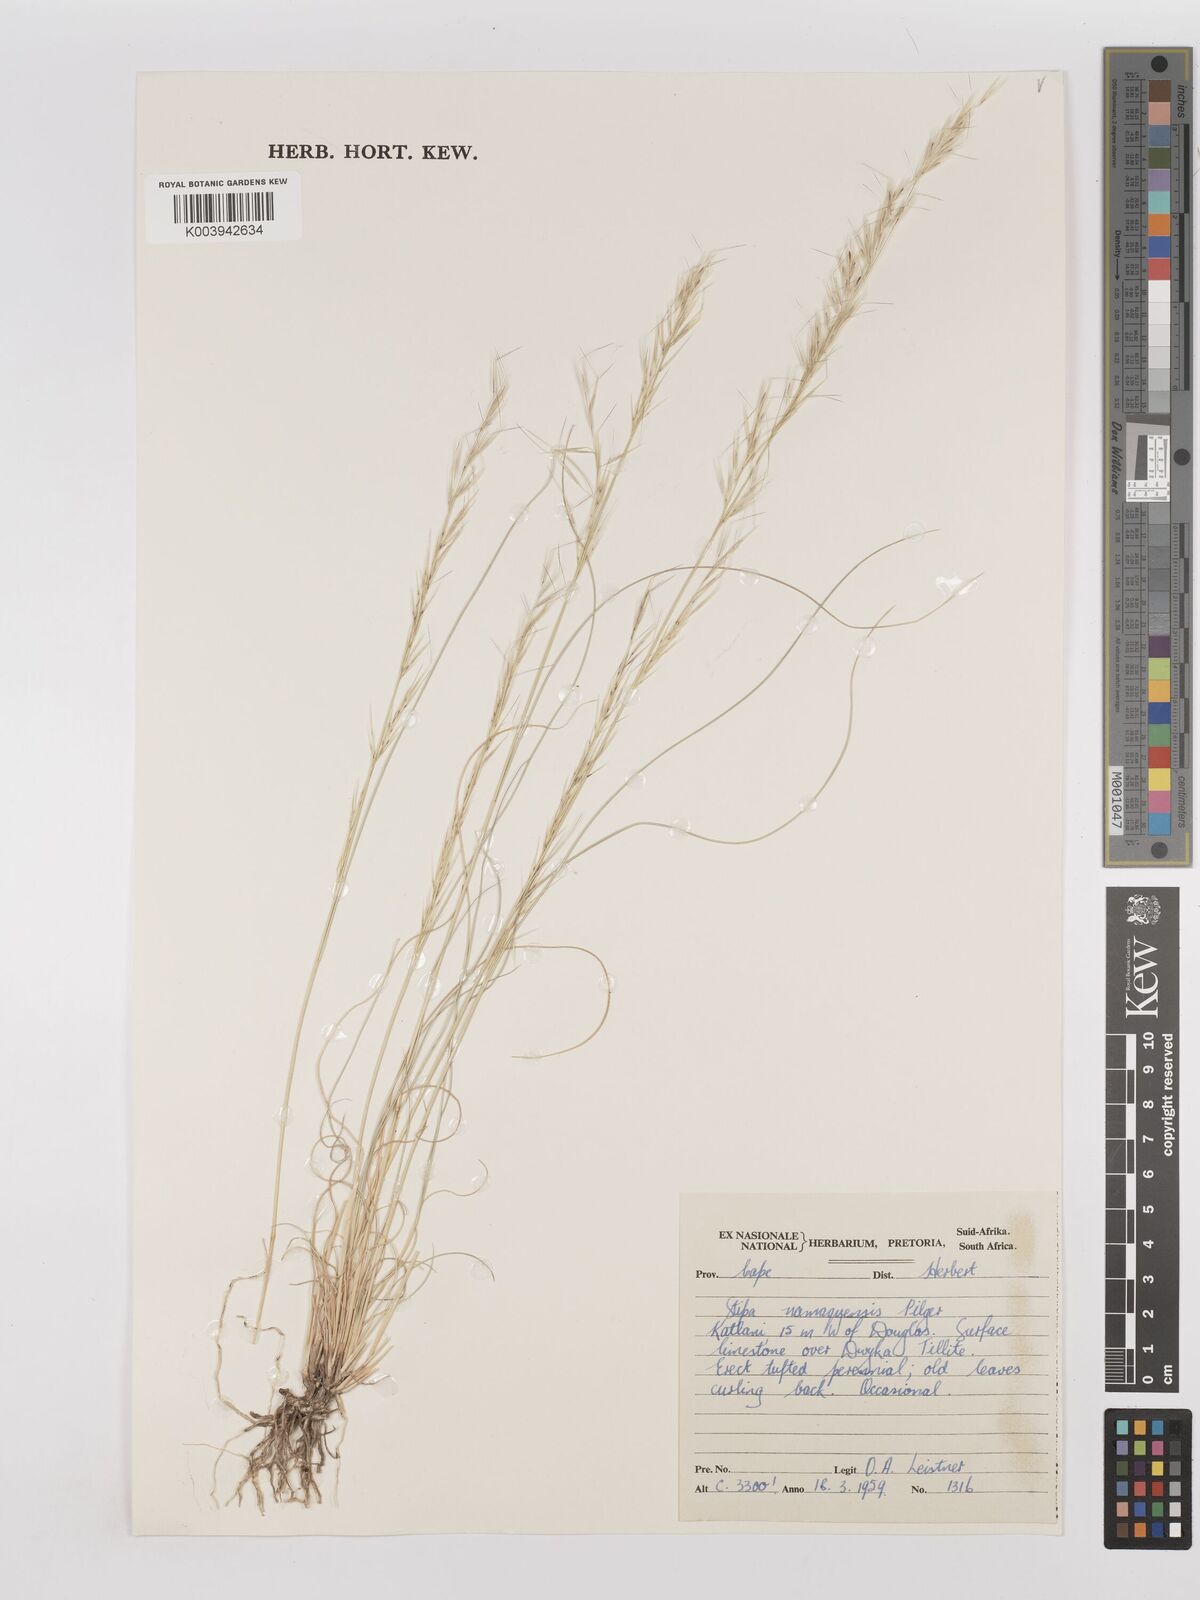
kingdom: Plantae
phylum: Tracheophyta
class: Liliopsida
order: Poales
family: Poaceae
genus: Stipagrostis
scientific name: Stipagrostis anomala
